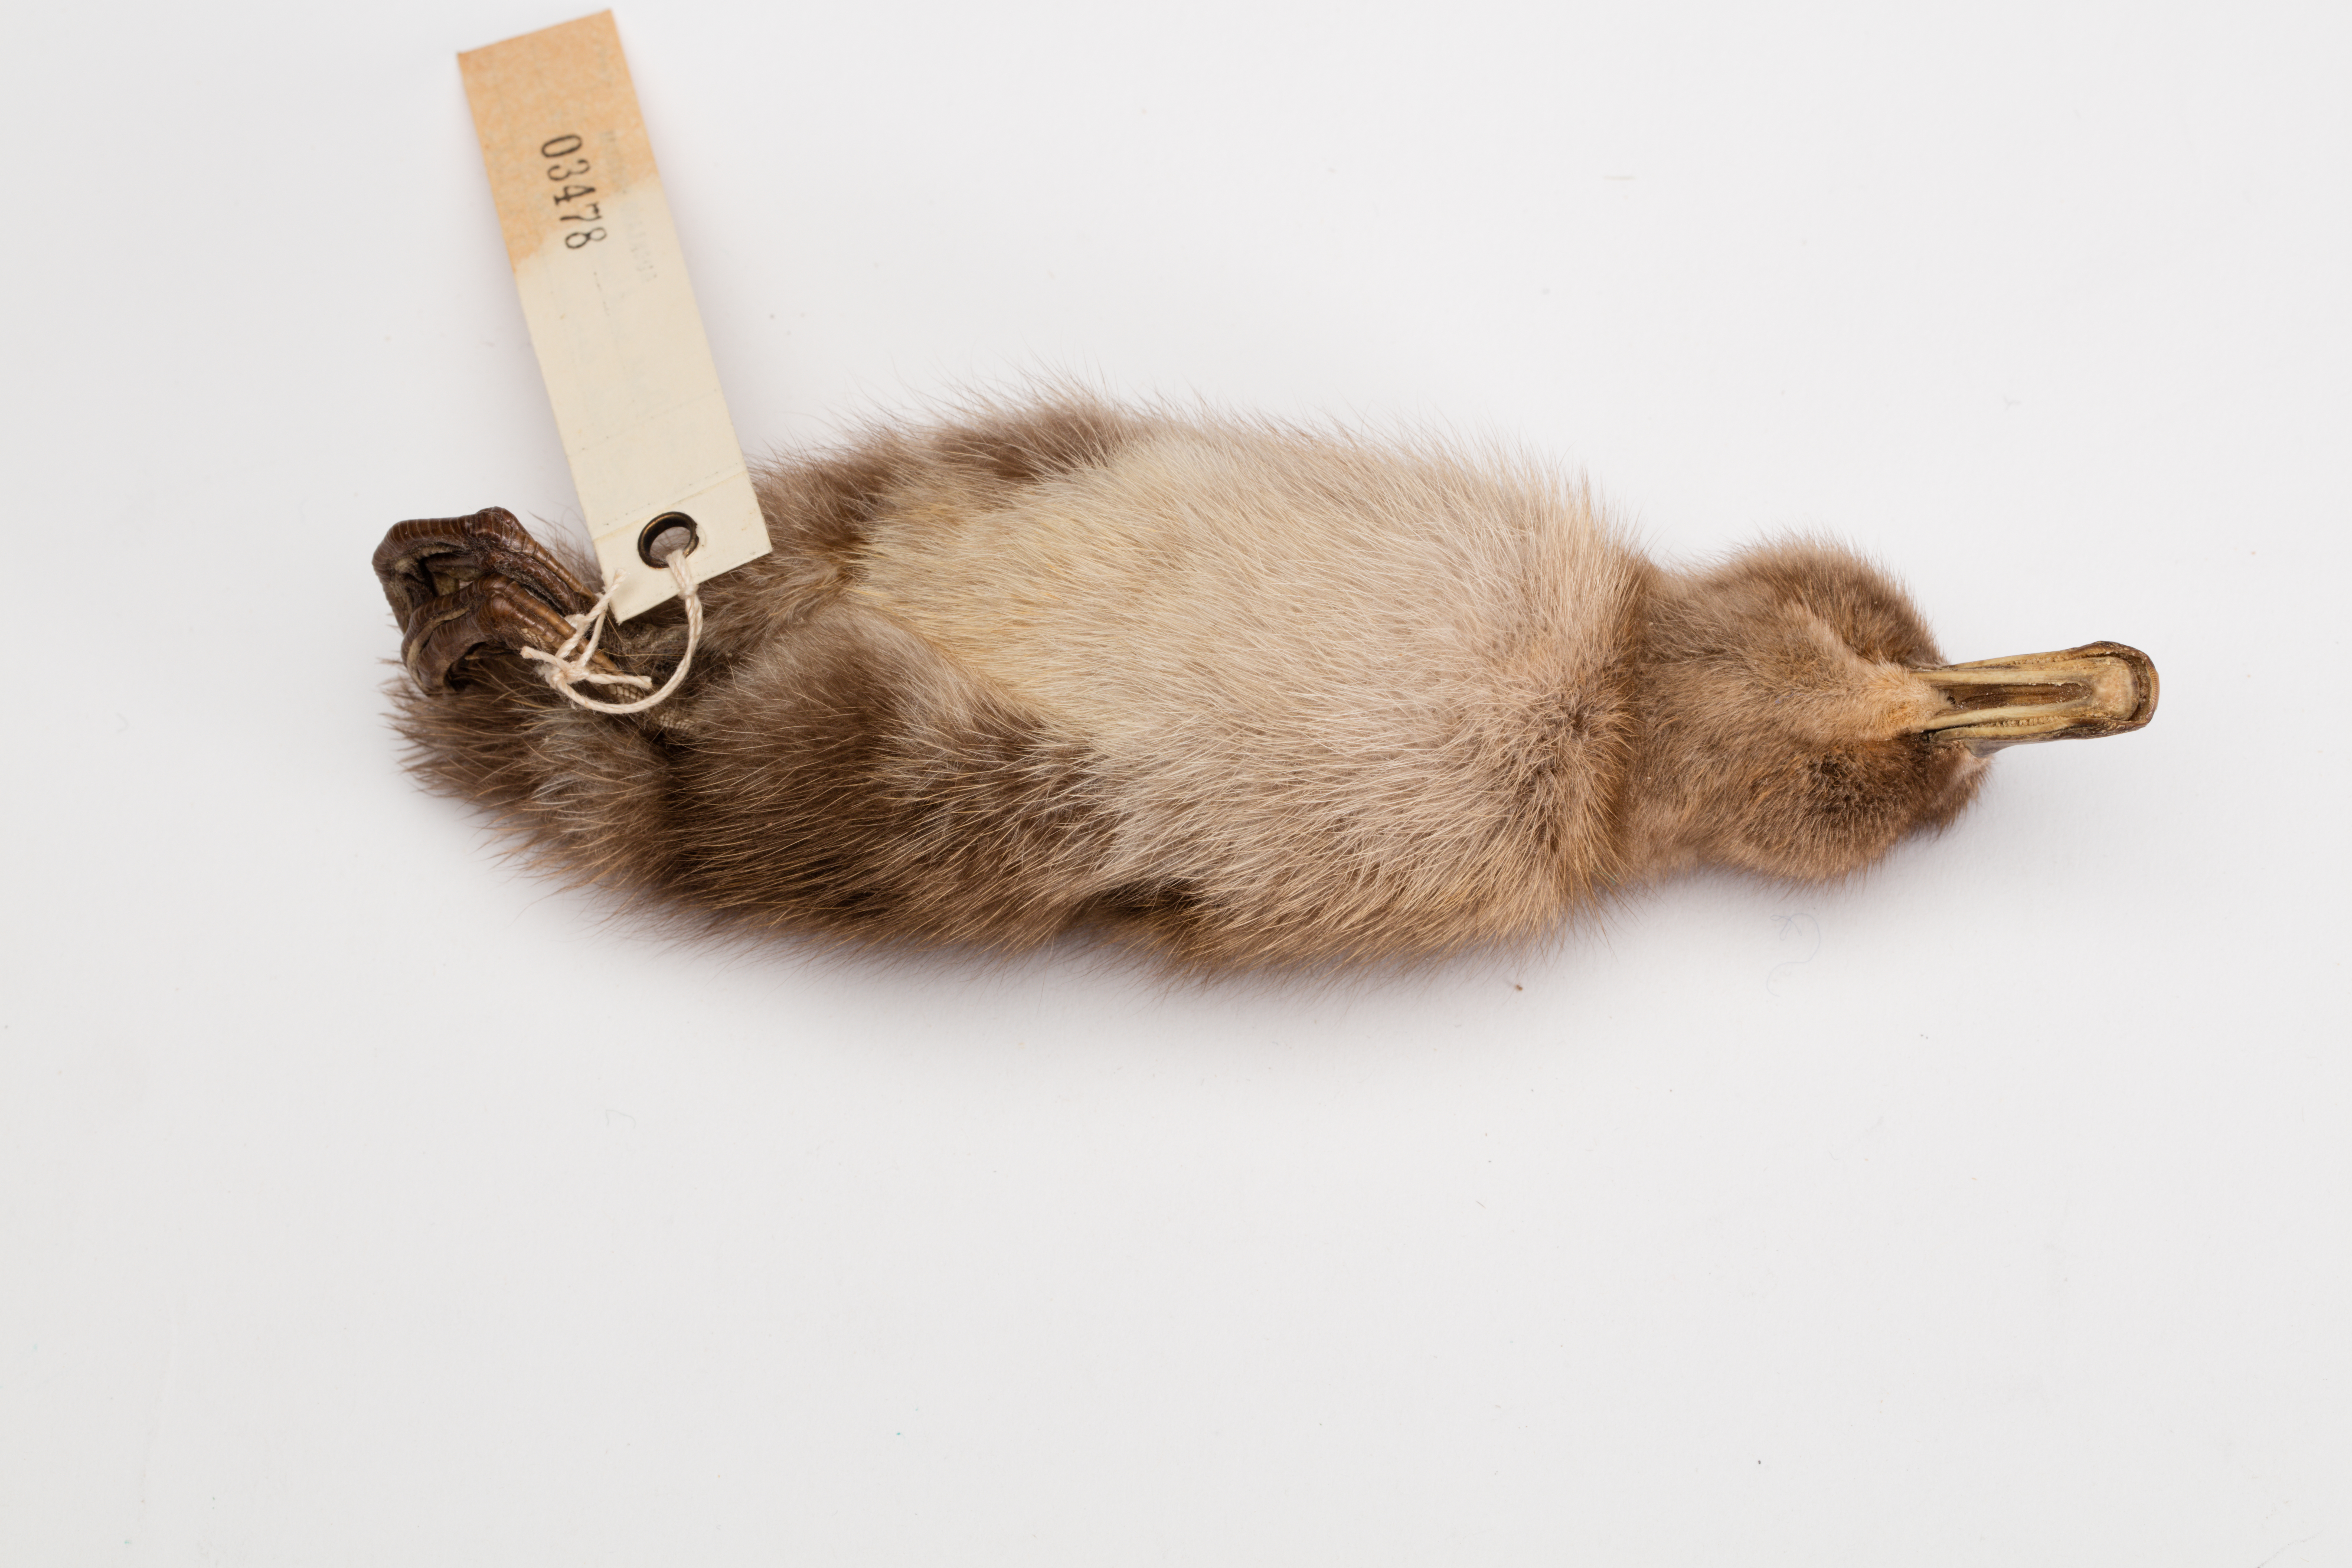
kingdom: Animalia
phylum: Chordata
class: Aves
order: Anseriformes
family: Anatidae
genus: Anas
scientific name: Anas chlorotis
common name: Brown teal
